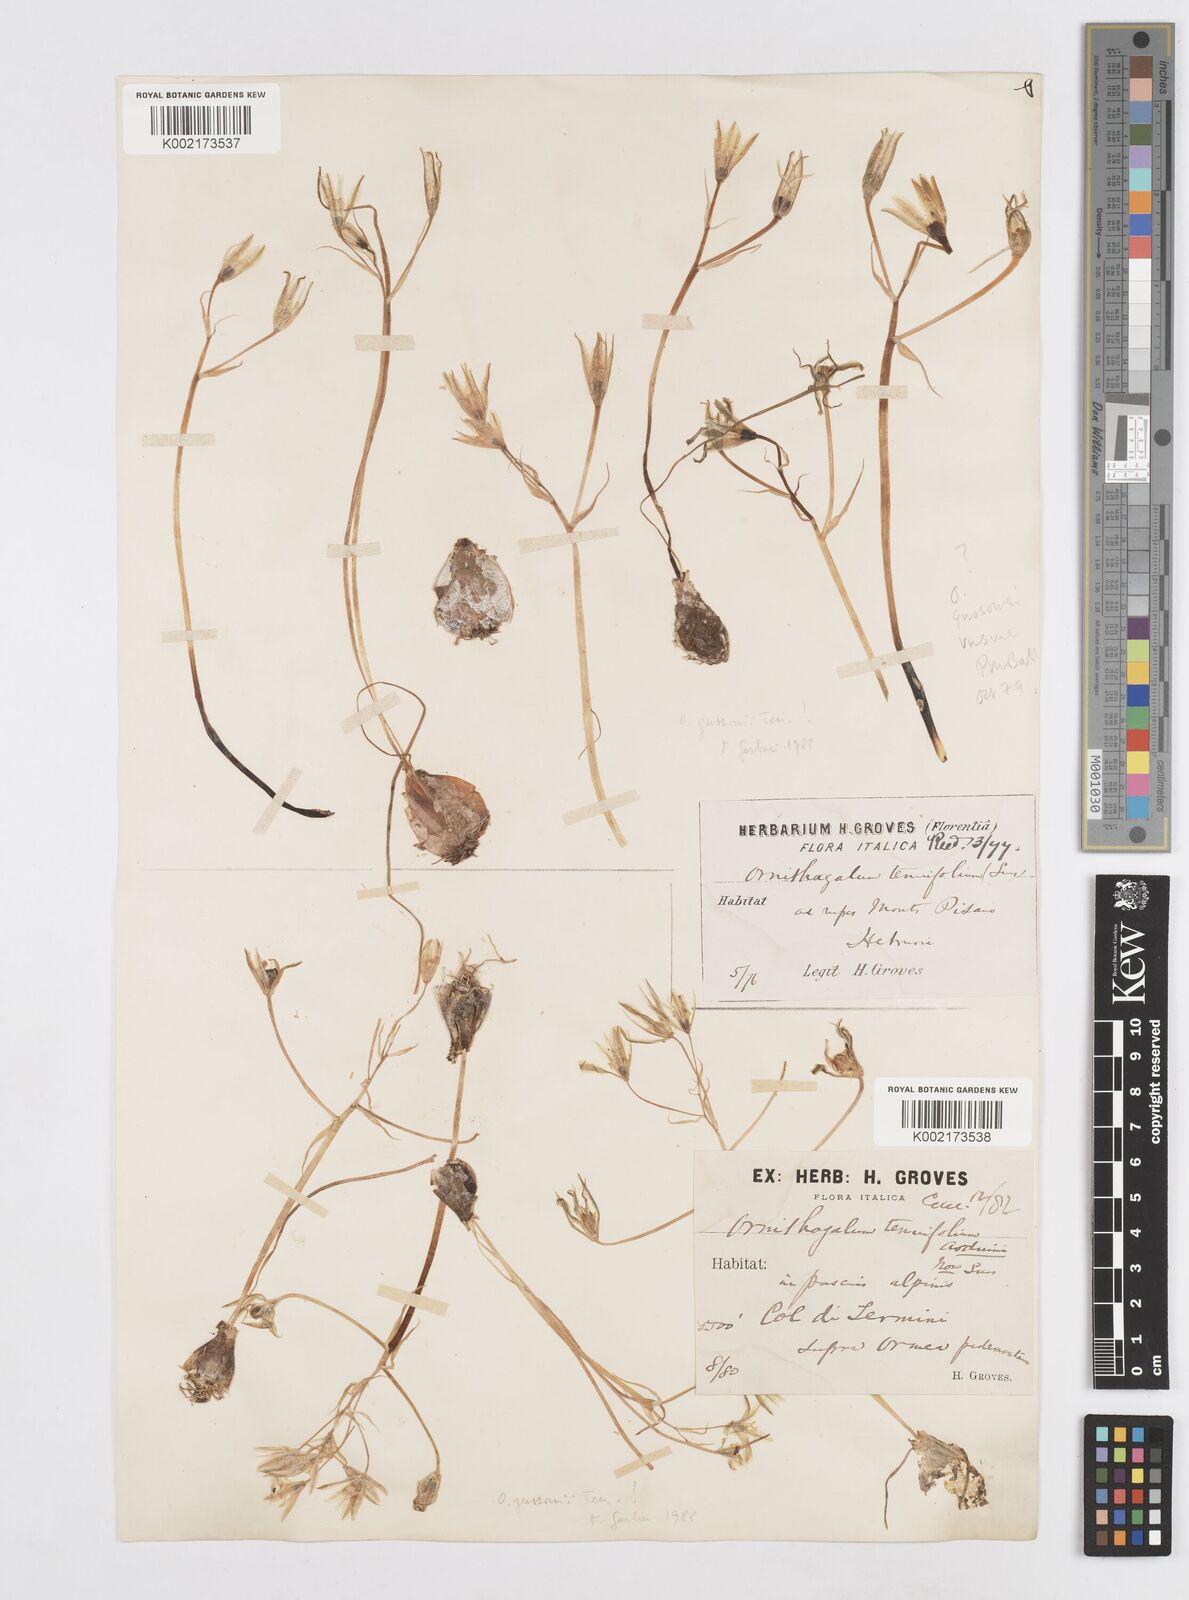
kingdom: Plantae
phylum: Tracheophyta
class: Liliopsida
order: Asparagales
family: Asparagaceae
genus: Ornithogalum
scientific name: Ornithogalum gussonei
